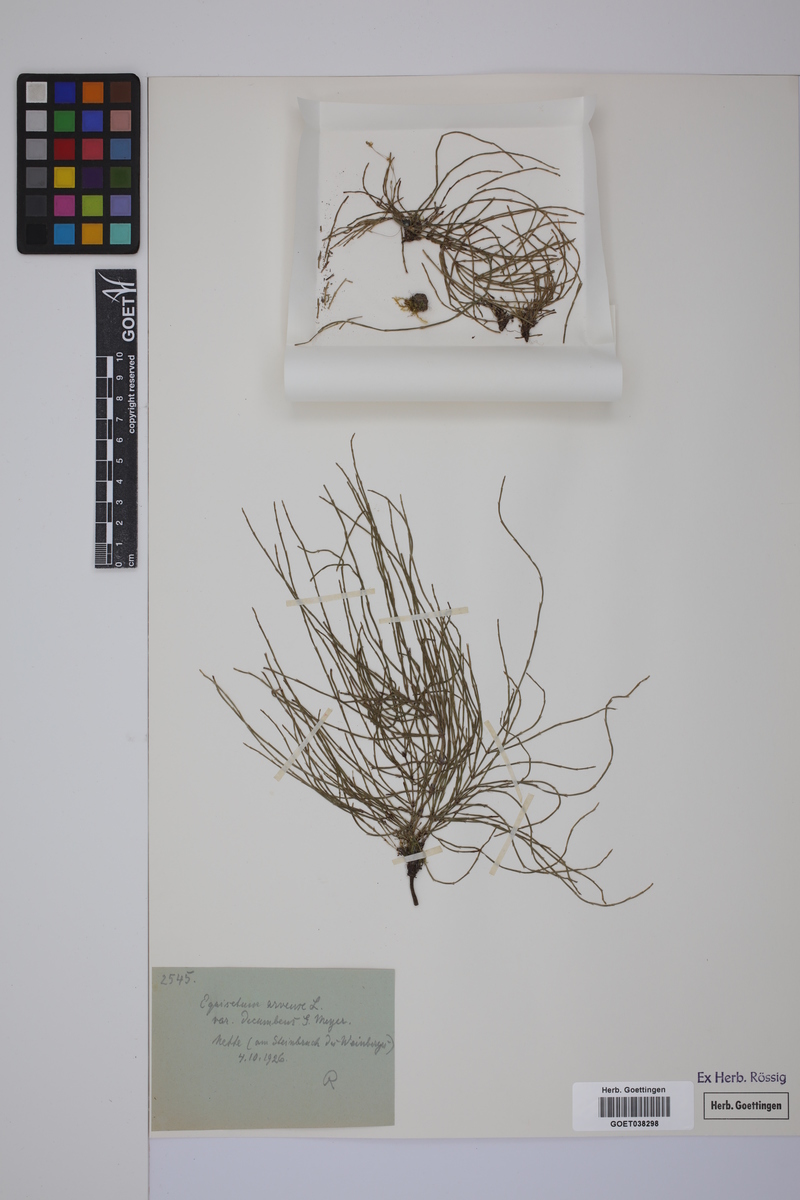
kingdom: Plantae
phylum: Tracheophyta
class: Polypodiopsida
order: Equisetales
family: Equisetaceae
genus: Equisetum
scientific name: Equisetum arvense
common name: Field horsetail
